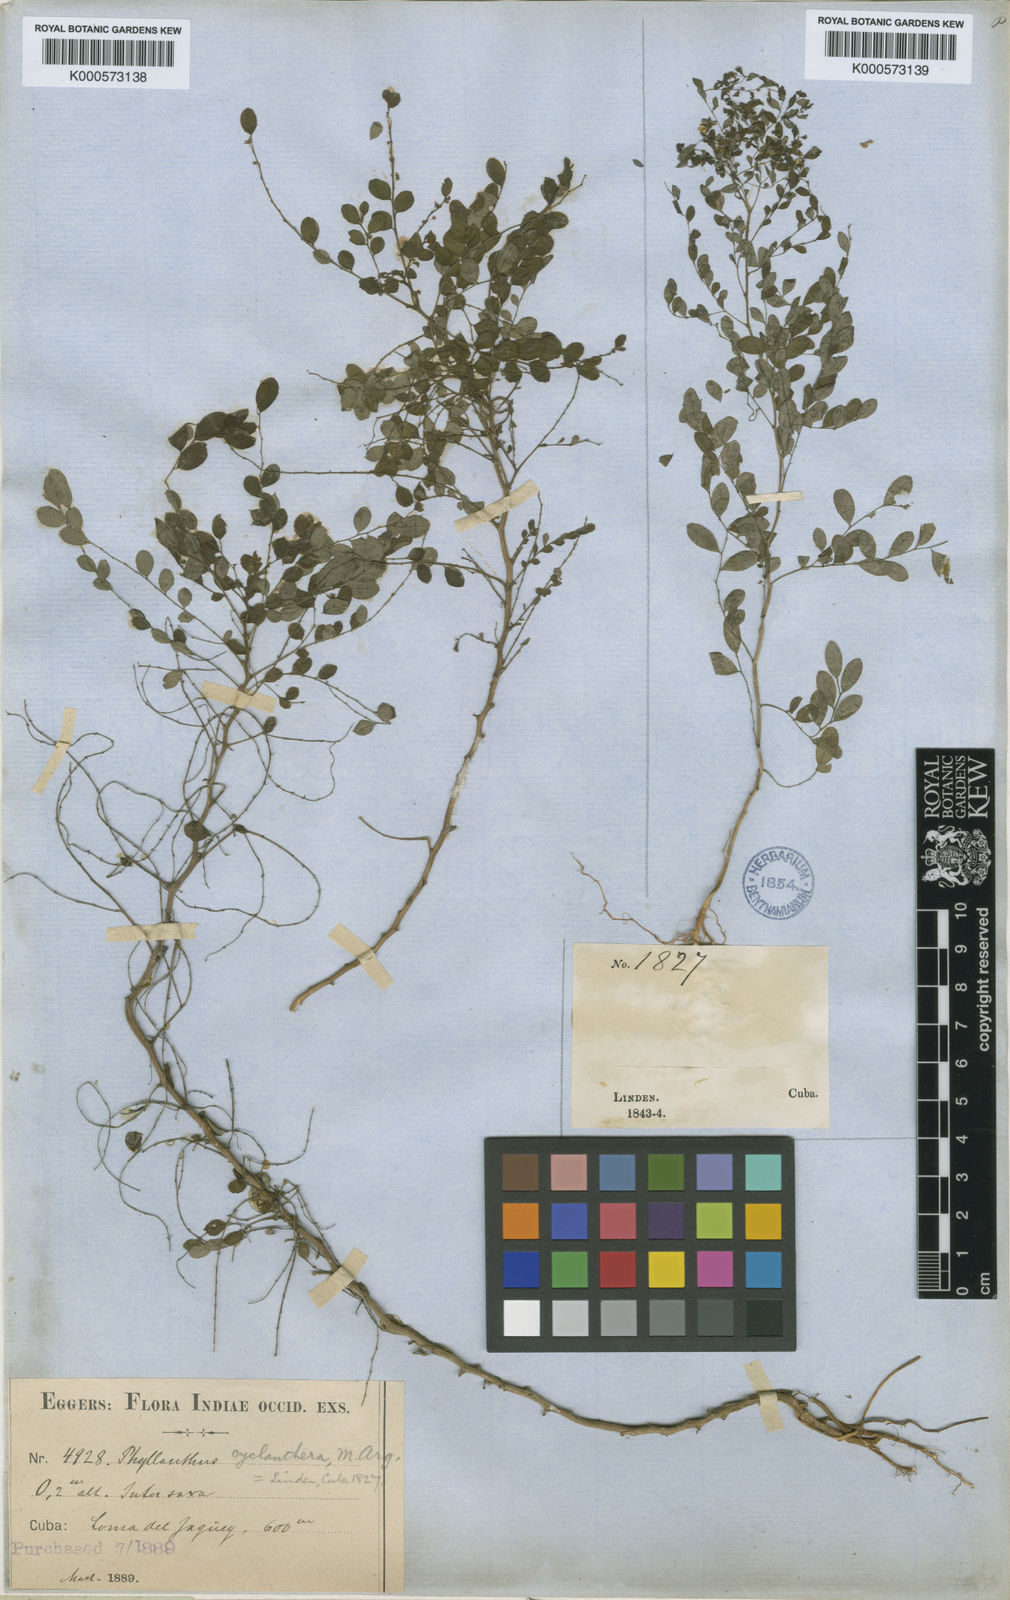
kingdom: Plantae
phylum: Tracheophyta
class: Magnoliopsida
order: Malpighiales
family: Phyllanthaceae
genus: Phyllanthus
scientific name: Phyllanthus
